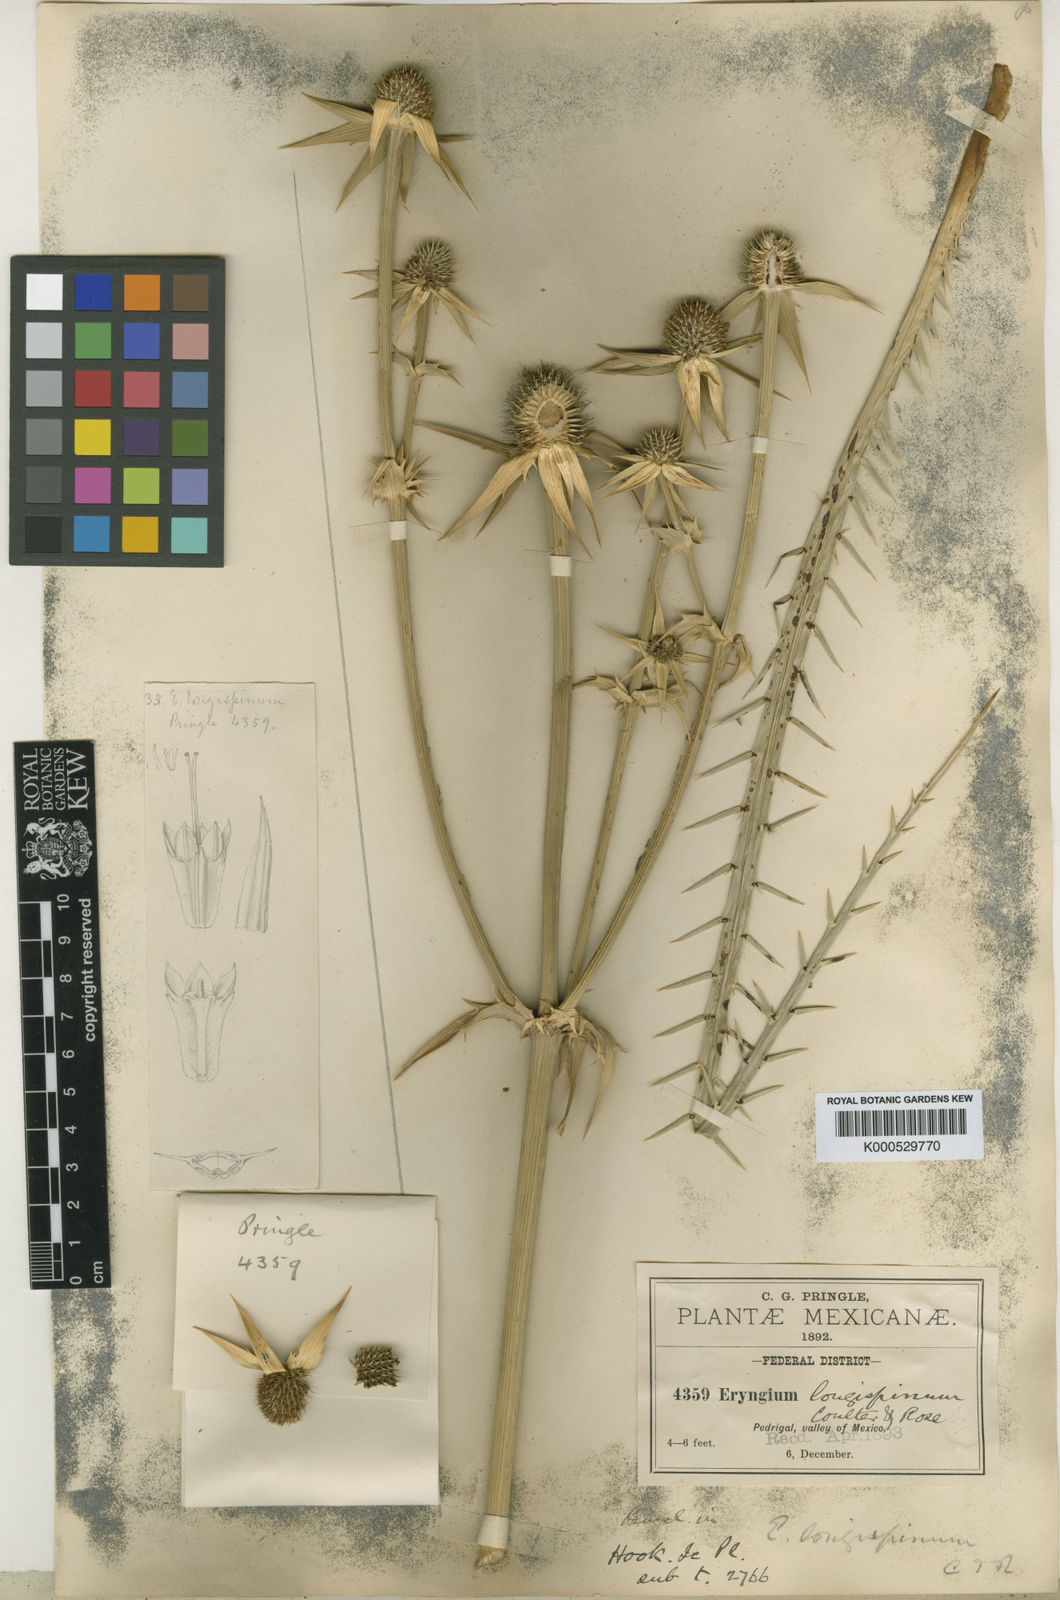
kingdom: Plantae
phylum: Tracheophyta
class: Magnoliopsida
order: Apiales
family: Apiaceae
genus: Eryngium
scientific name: Eryngium pectinatum
